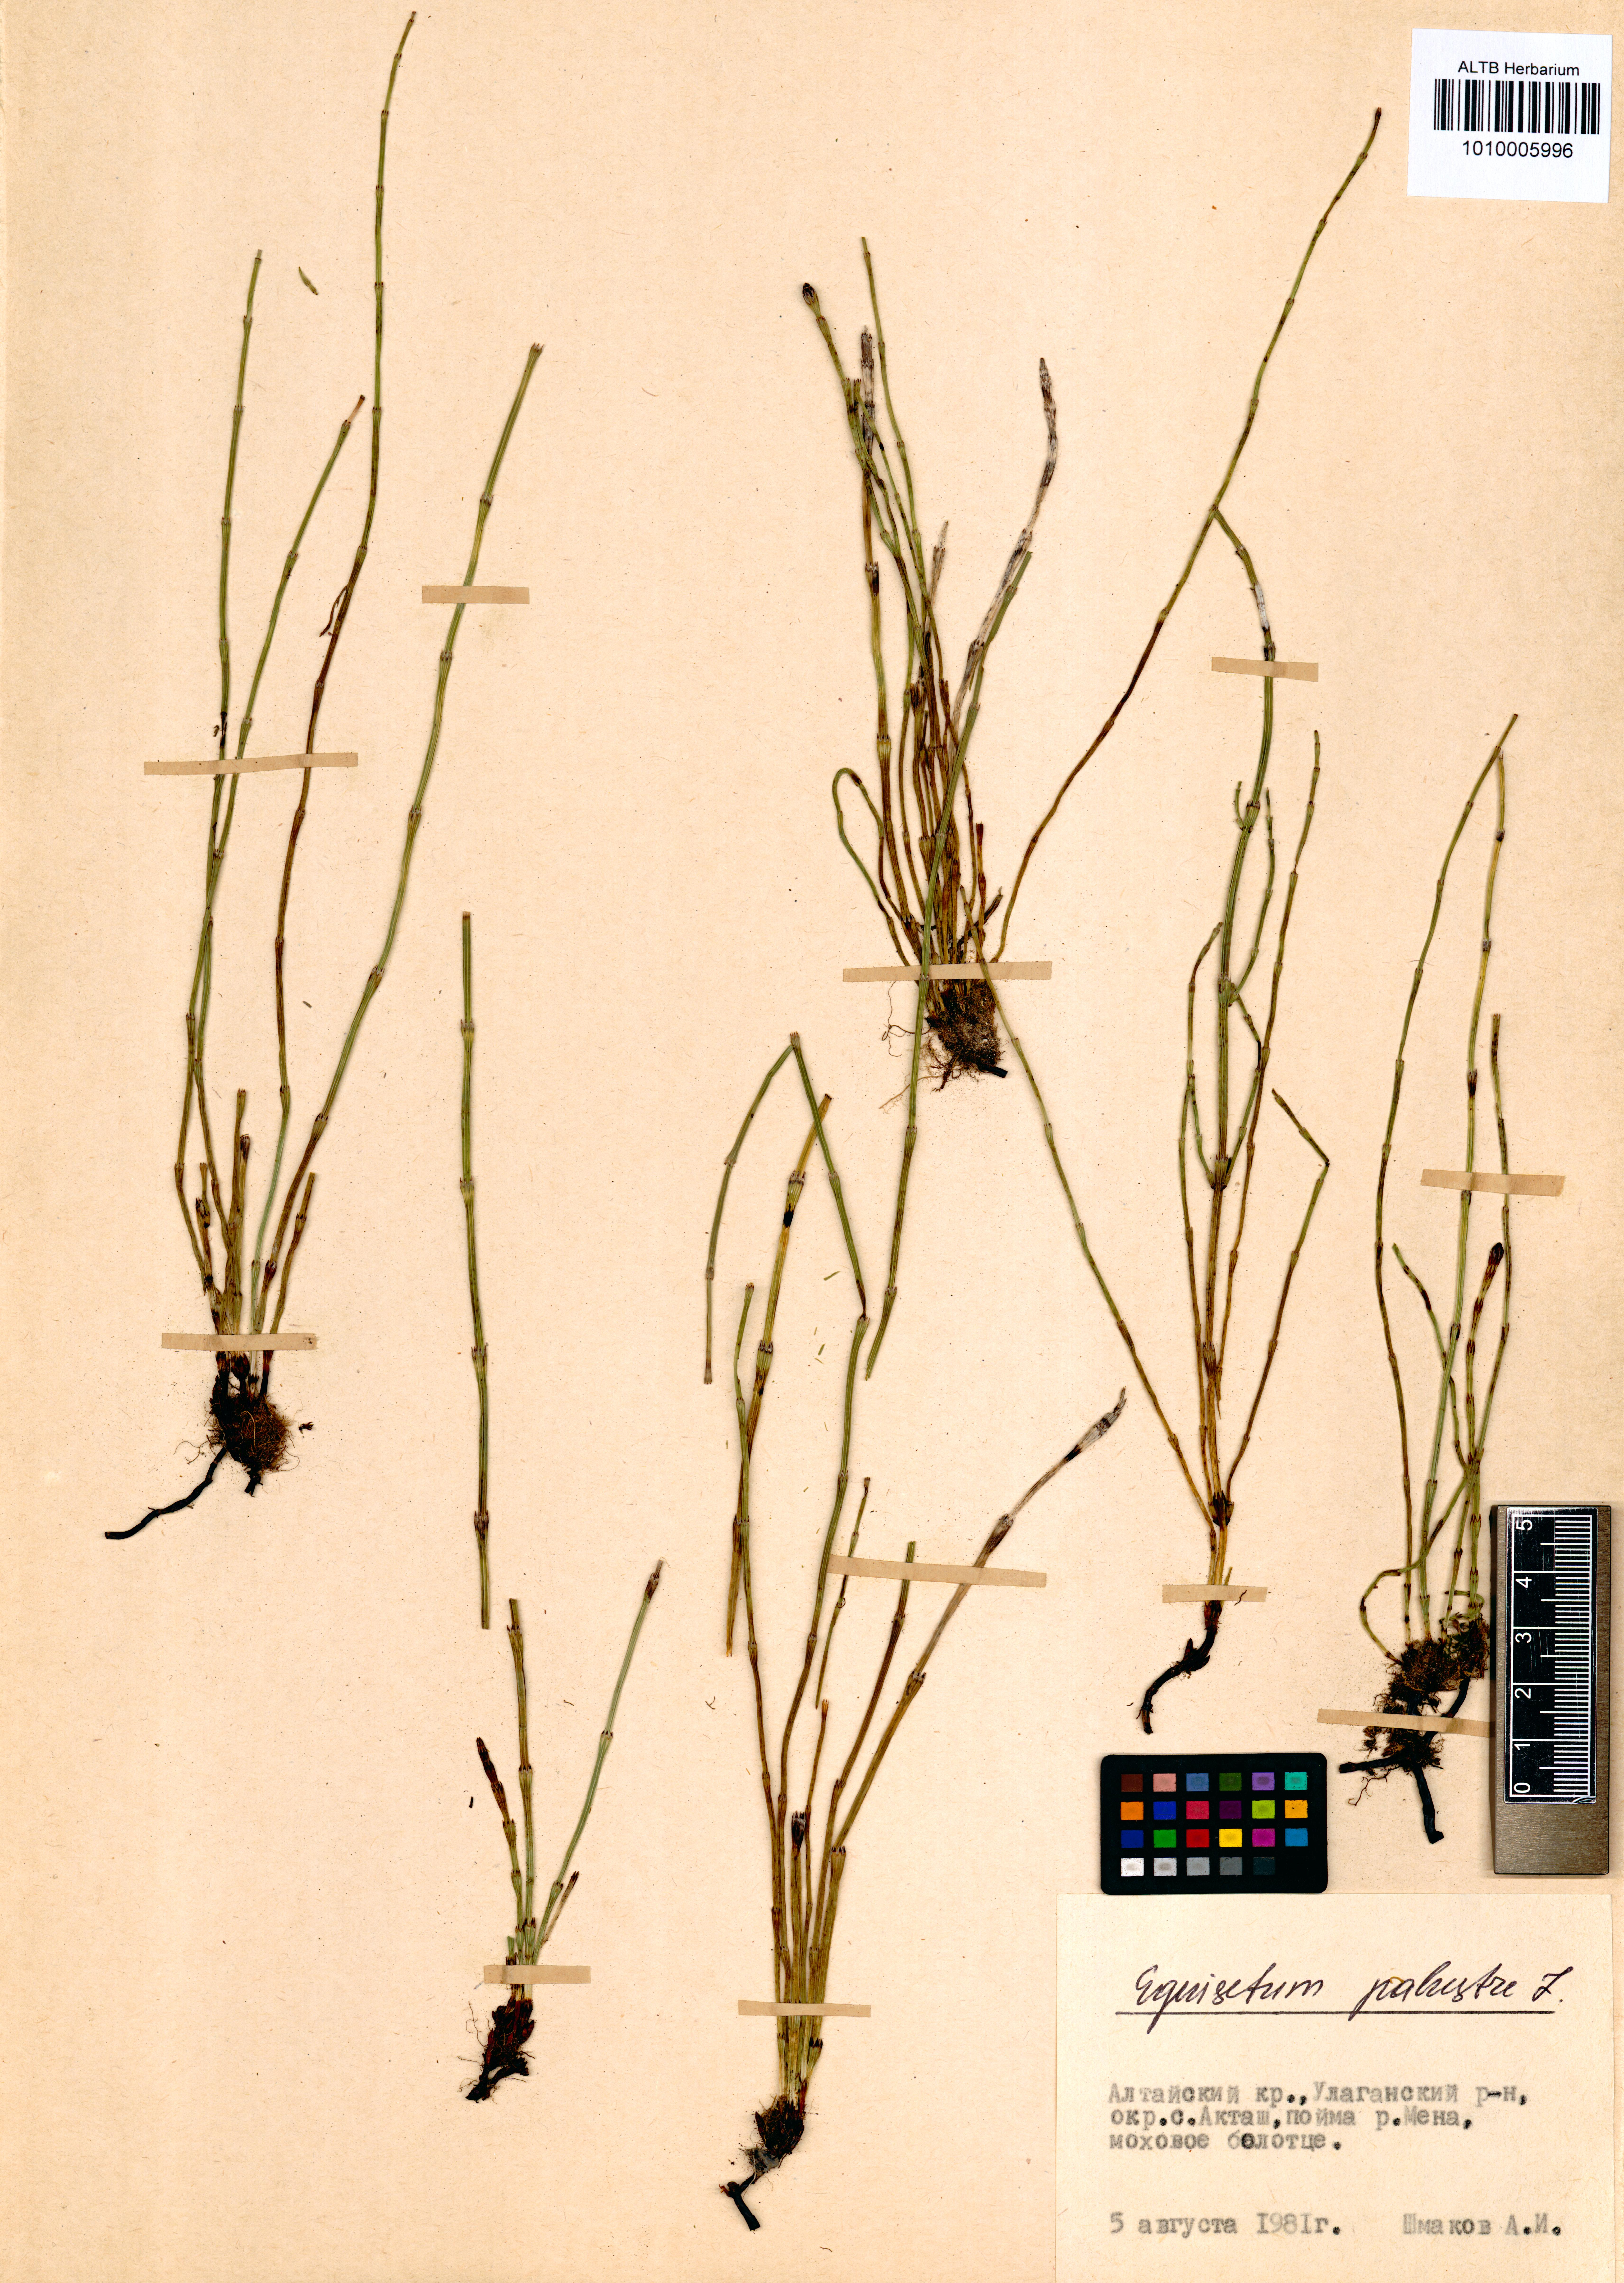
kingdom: Plantae
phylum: Tracheophyta
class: Polypodiopsida
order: Equisetales
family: Equisetaceae
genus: Equisetum
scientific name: Equisetum palustre
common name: Marsh horsetail
